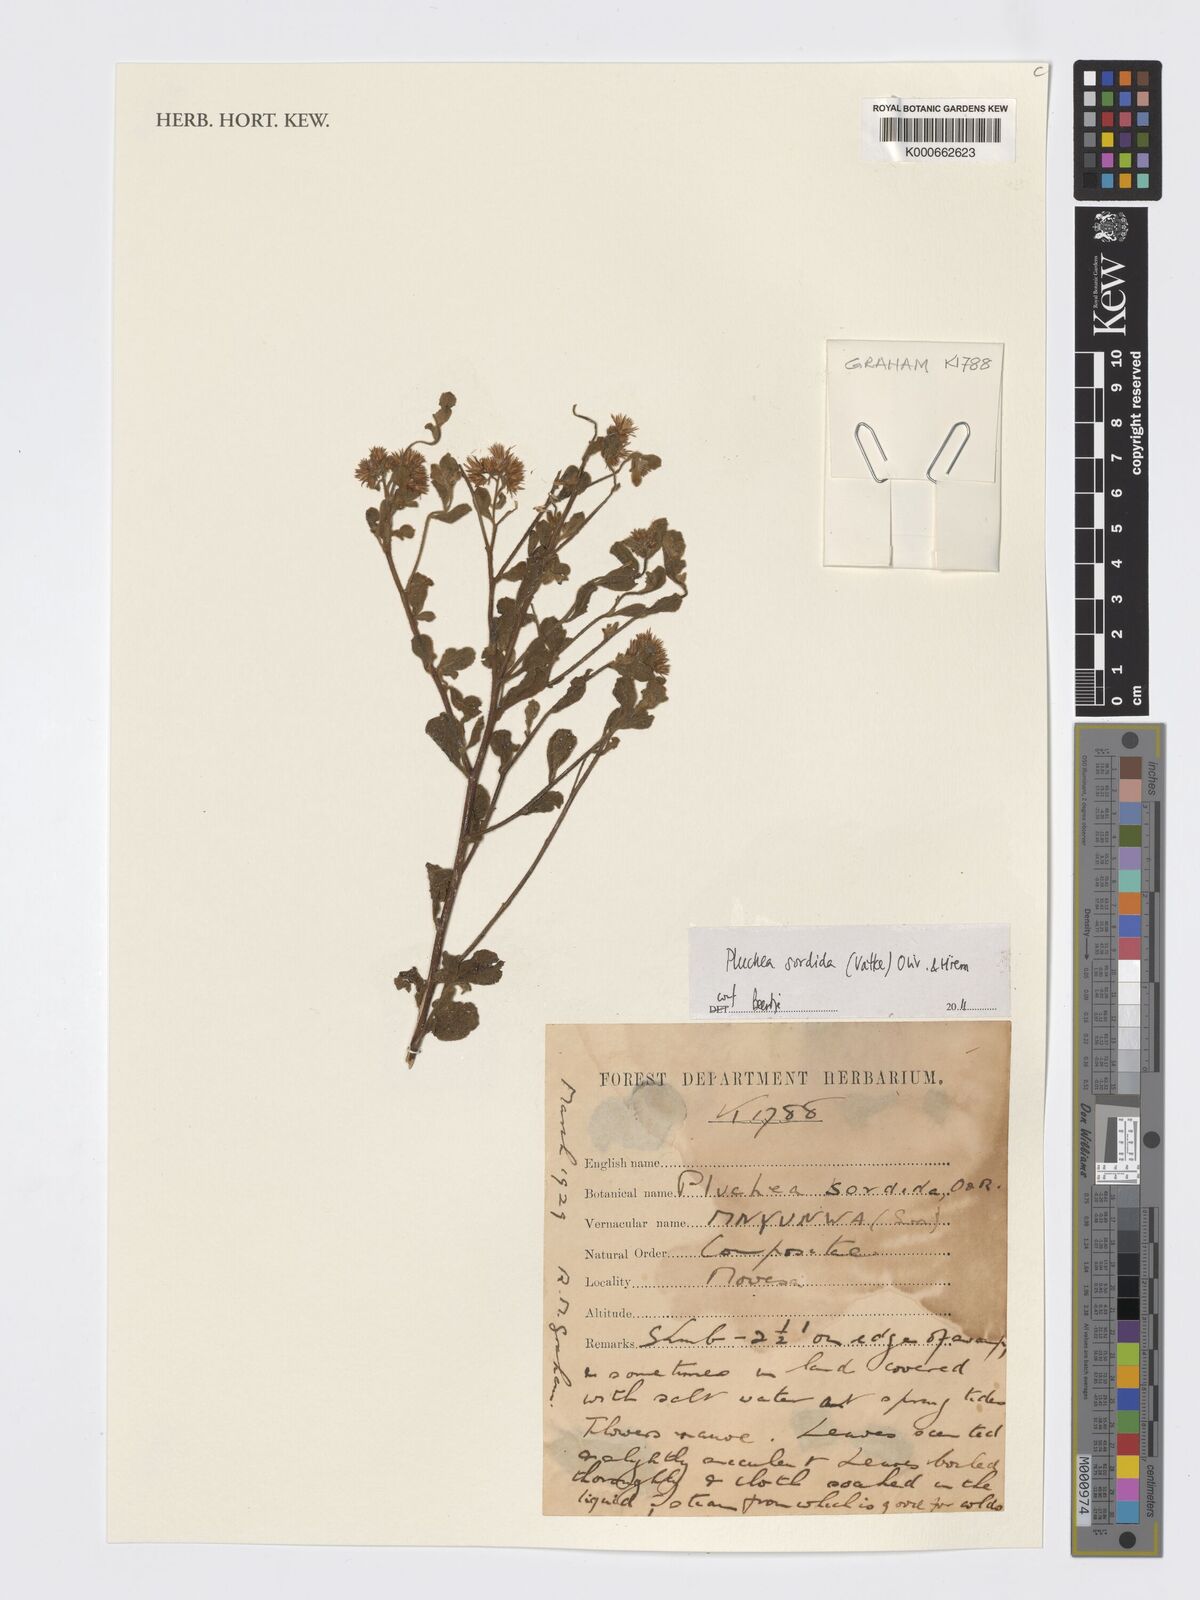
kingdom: Plantae
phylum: Tracheophyta
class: Magnoliopsida
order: Asterales
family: Asteraceae
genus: Pluchea
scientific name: Pluchea sordida
